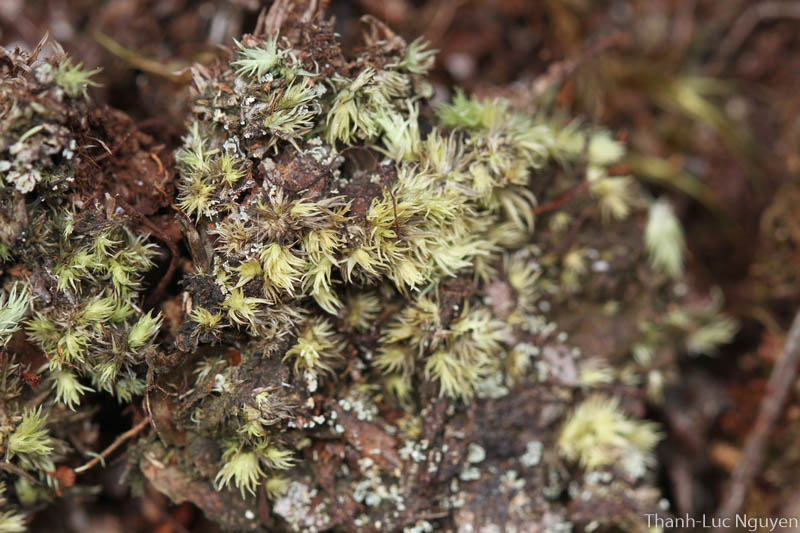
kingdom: Plantae
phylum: Bryophyta
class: Bryopsida
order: Dicranales
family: Leucobryaceae
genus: Leucobryum
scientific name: Leucobryum
